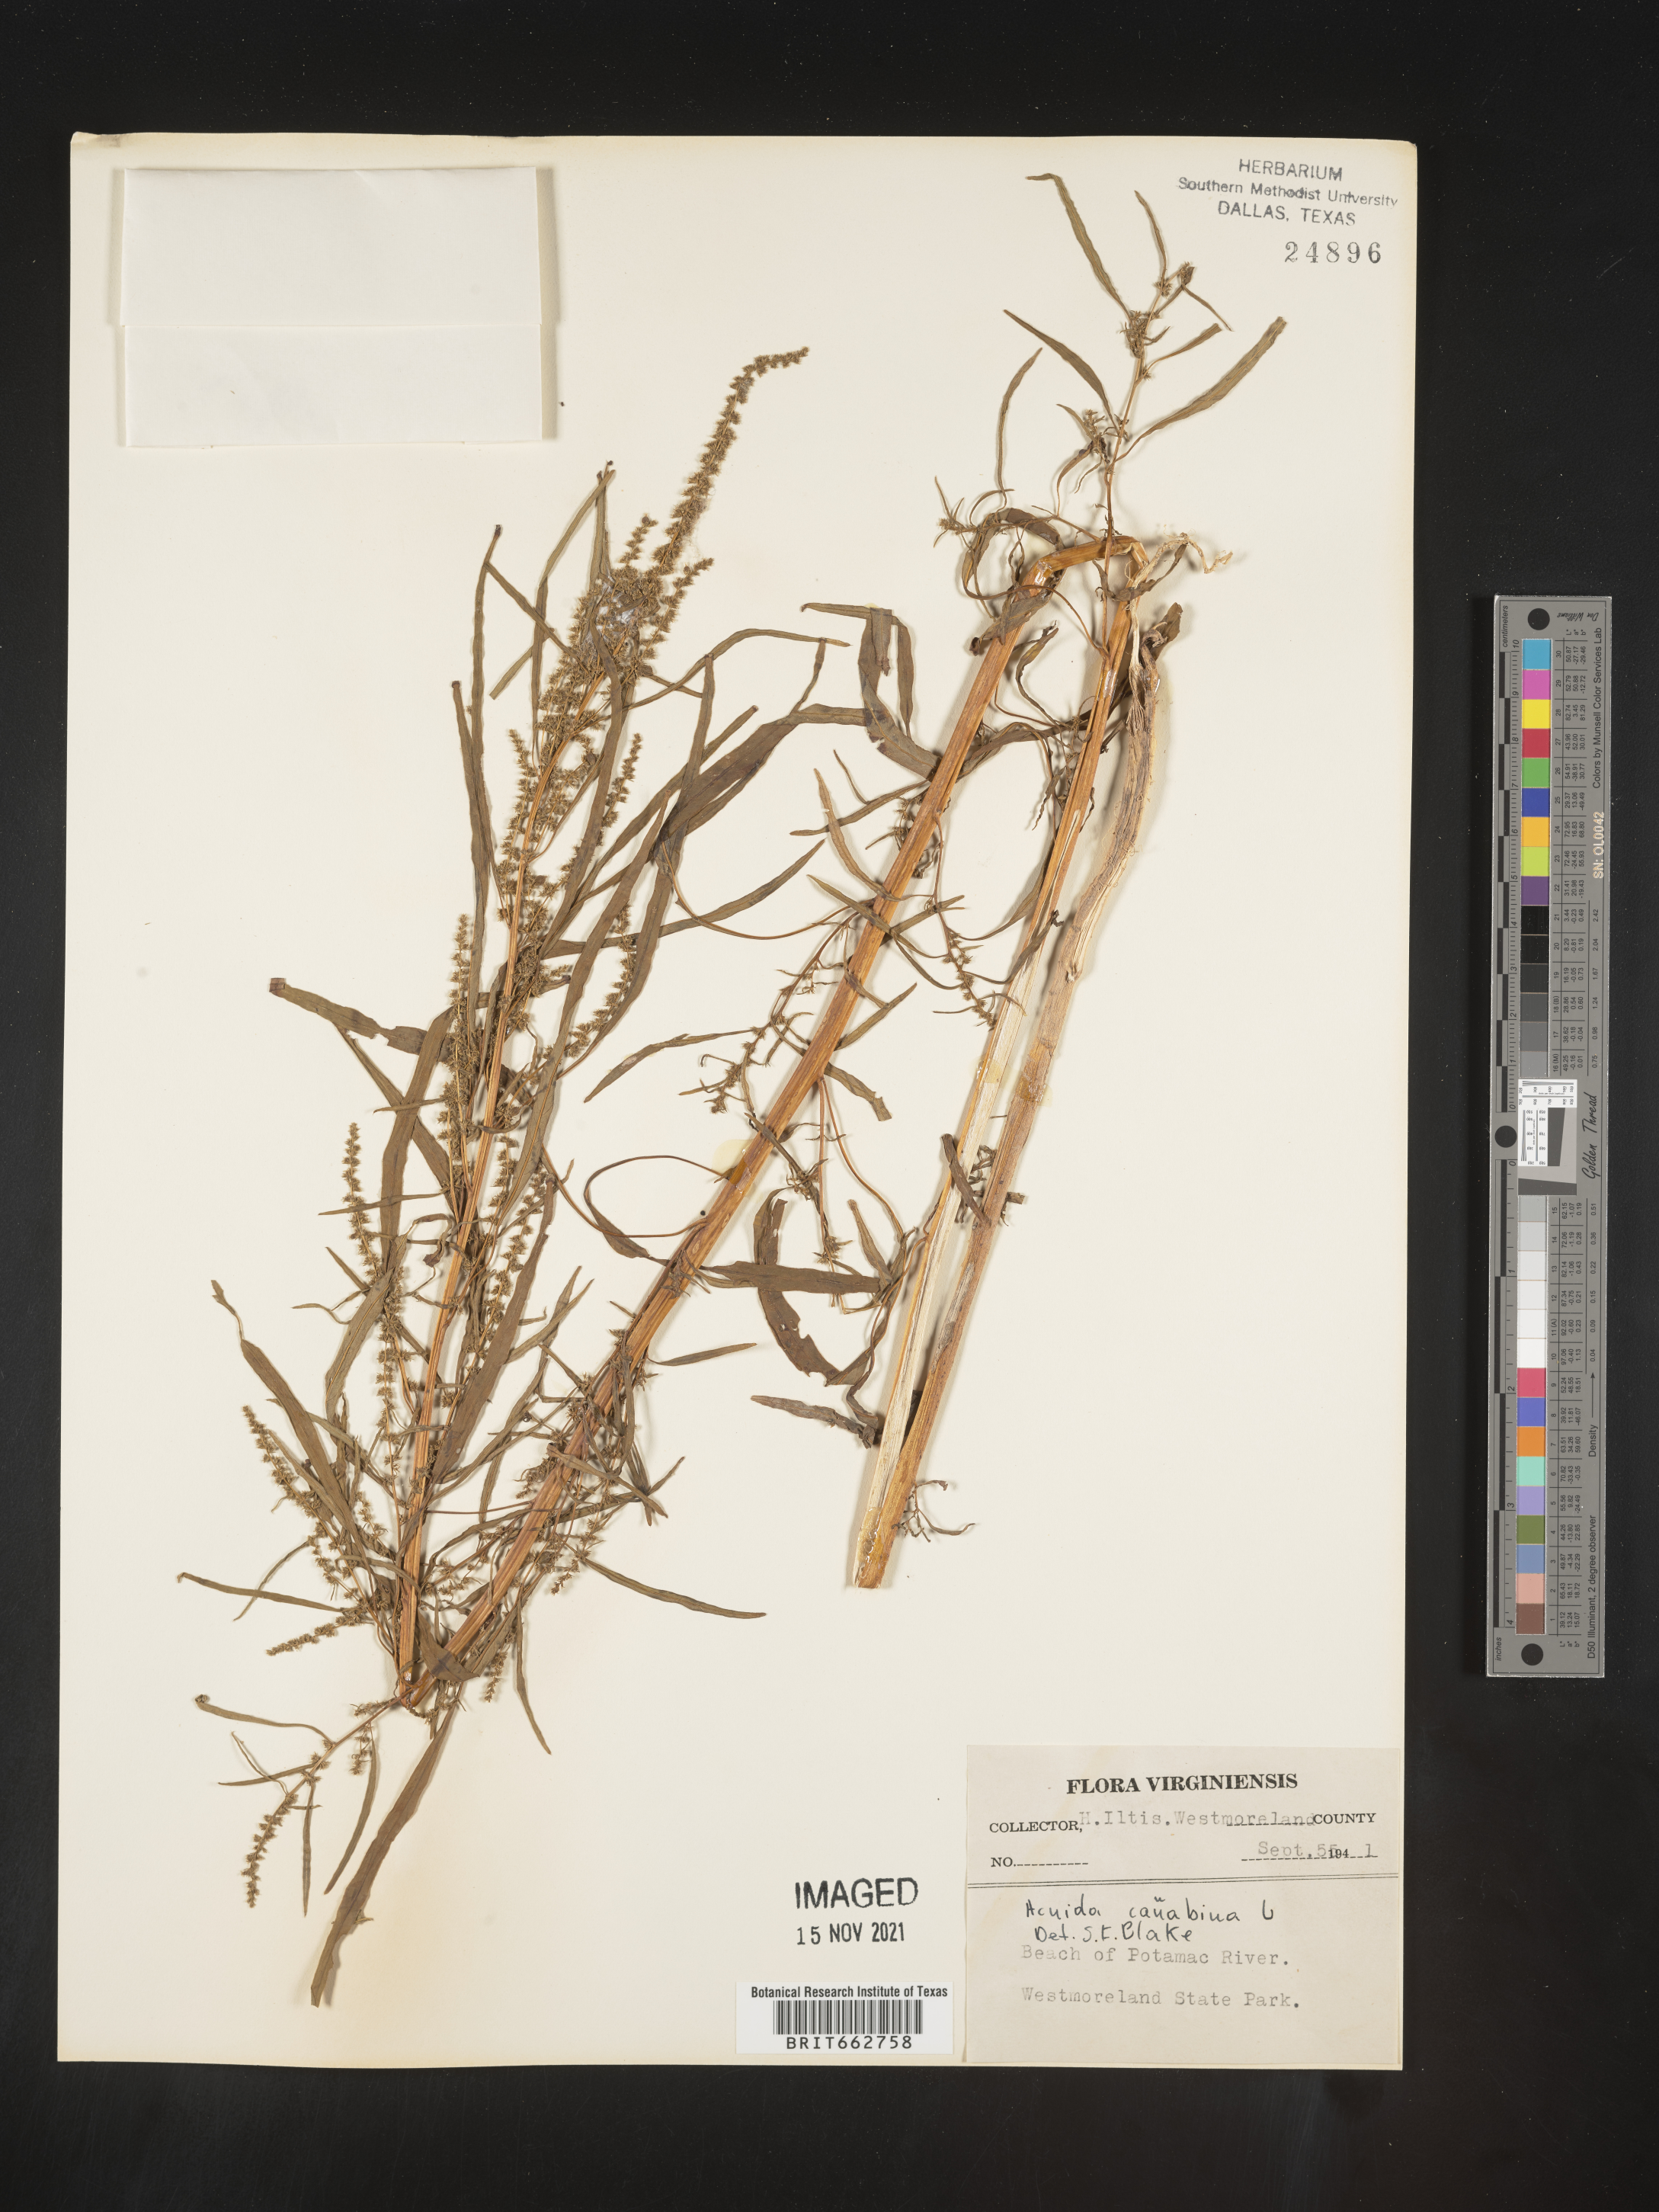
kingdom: Plantae
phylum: Tracheophyta
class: Magnoliopsida
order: Caryophyllales
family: Amaranthaceae
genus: Amaranthus
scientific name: Amaranthus cannabinus
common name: Salt-marsh water-hemp
